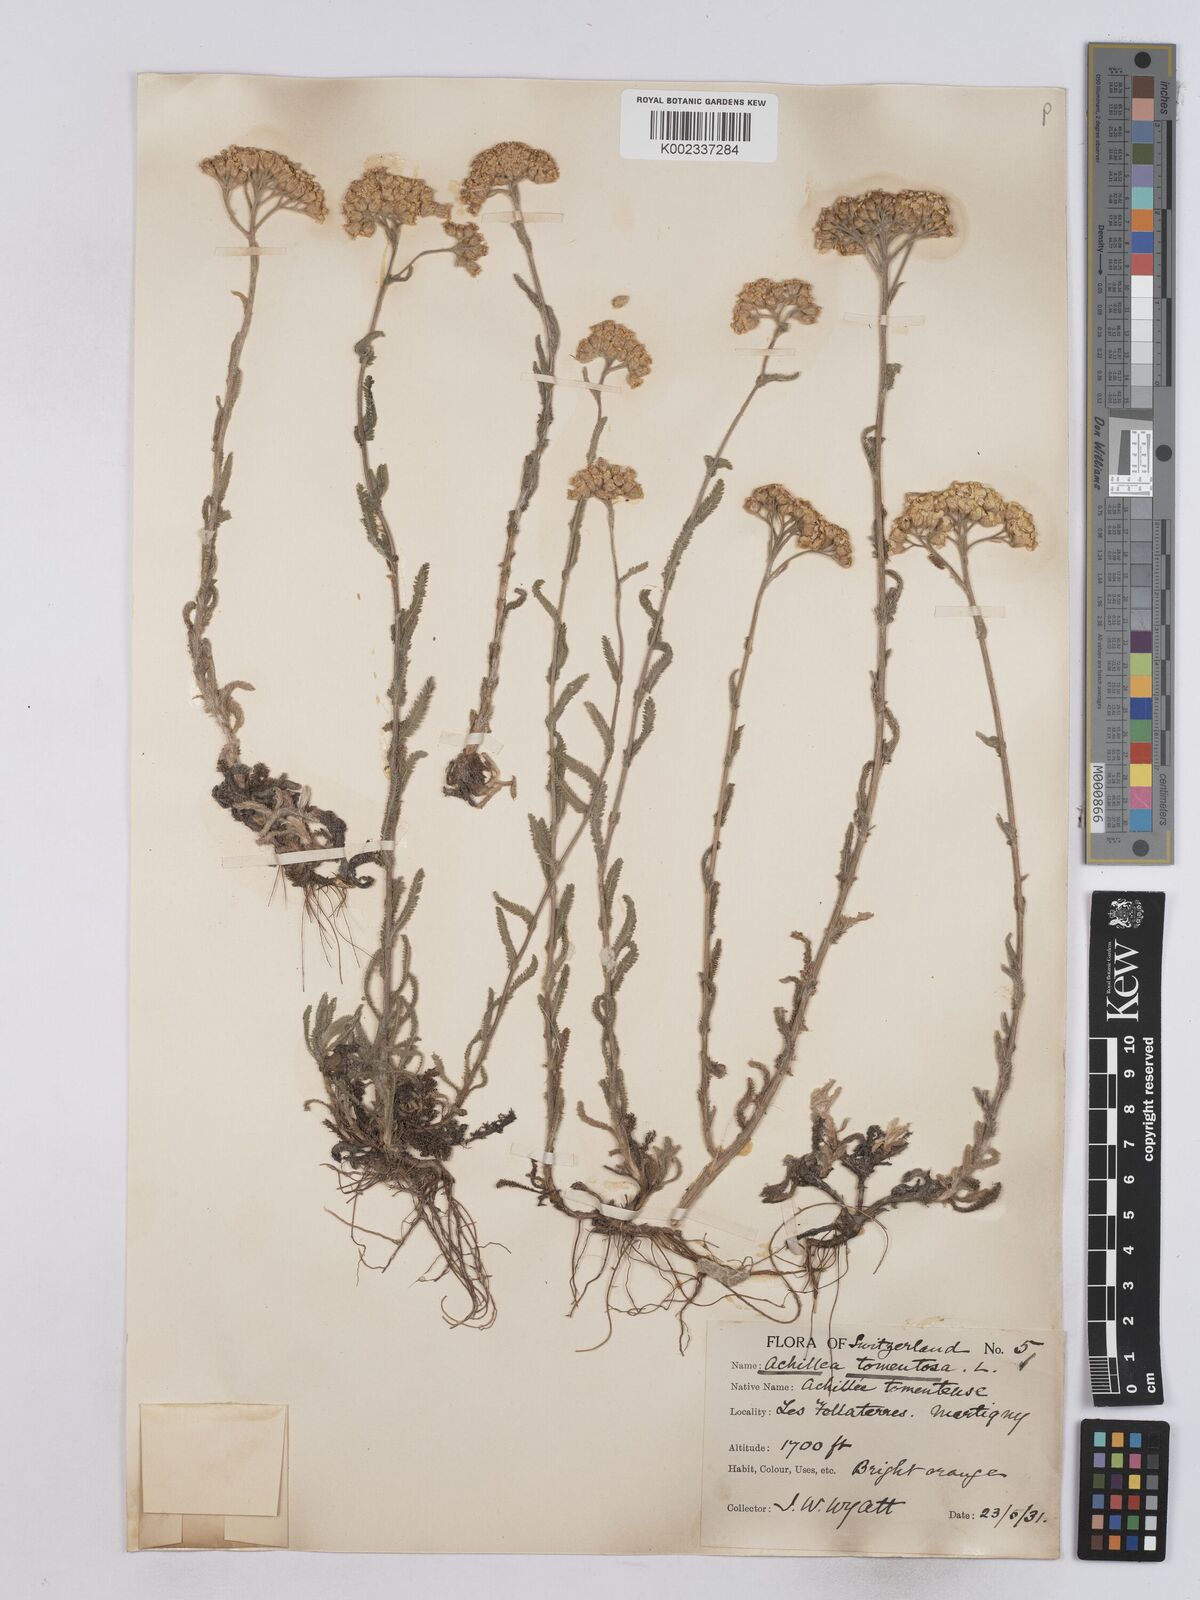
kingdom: Plantae
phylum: Tracheophyta
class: Magnoliopsida
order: Asterales
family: Asteraceae
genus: Achillea
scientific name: Achillea tomentosa
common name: Yellow milfoil
